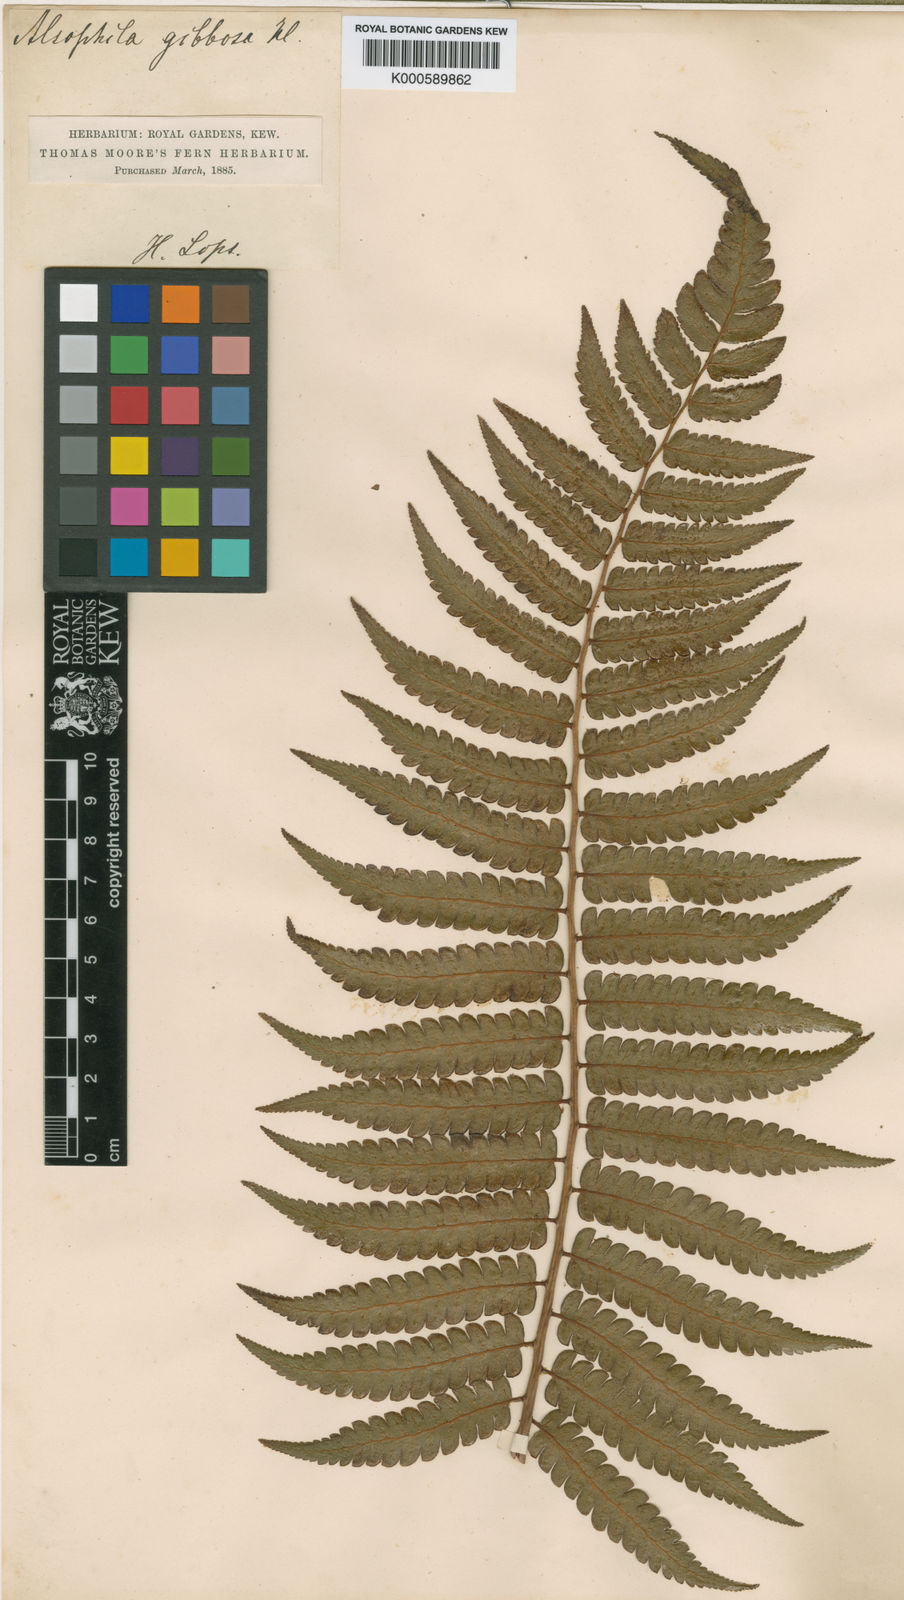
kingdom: Plantae
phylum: Tracheophyta
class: Polypodiopsida
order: Cyatheales
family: Cyatheaceae
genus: Cyathea
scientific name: Cyathea gibbosa
